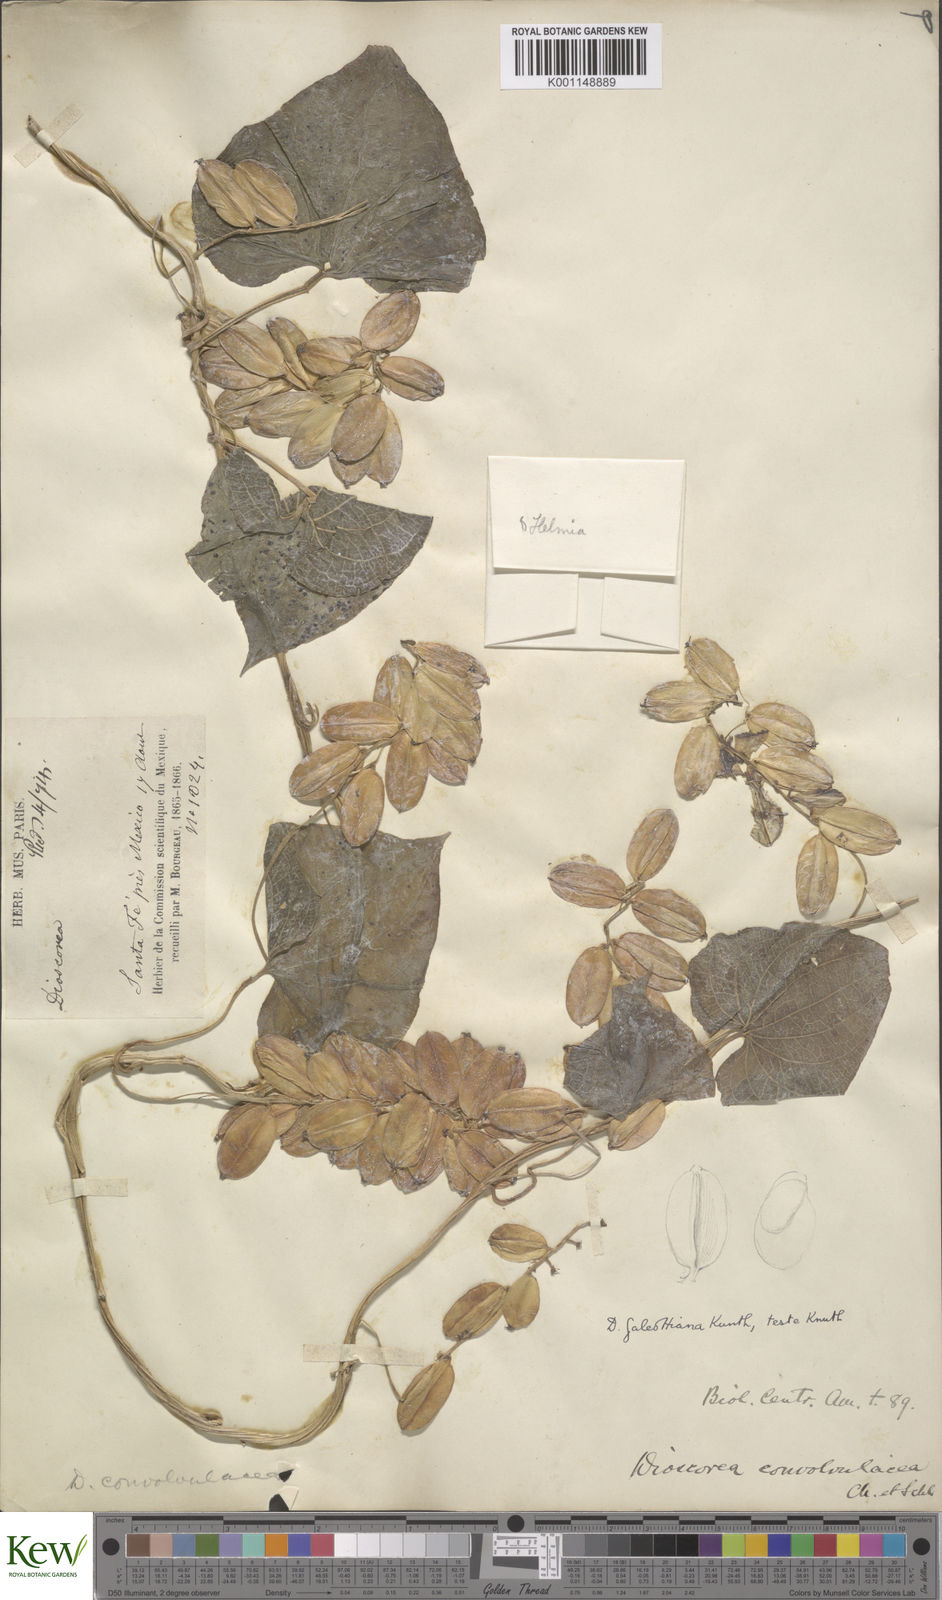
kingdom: Plantae
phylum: Tracheophyta
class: Liliopsida
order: Dioscoreales
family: Dioscoreaceae
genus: Dioscorea
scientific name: Dioscorea galeottiana
